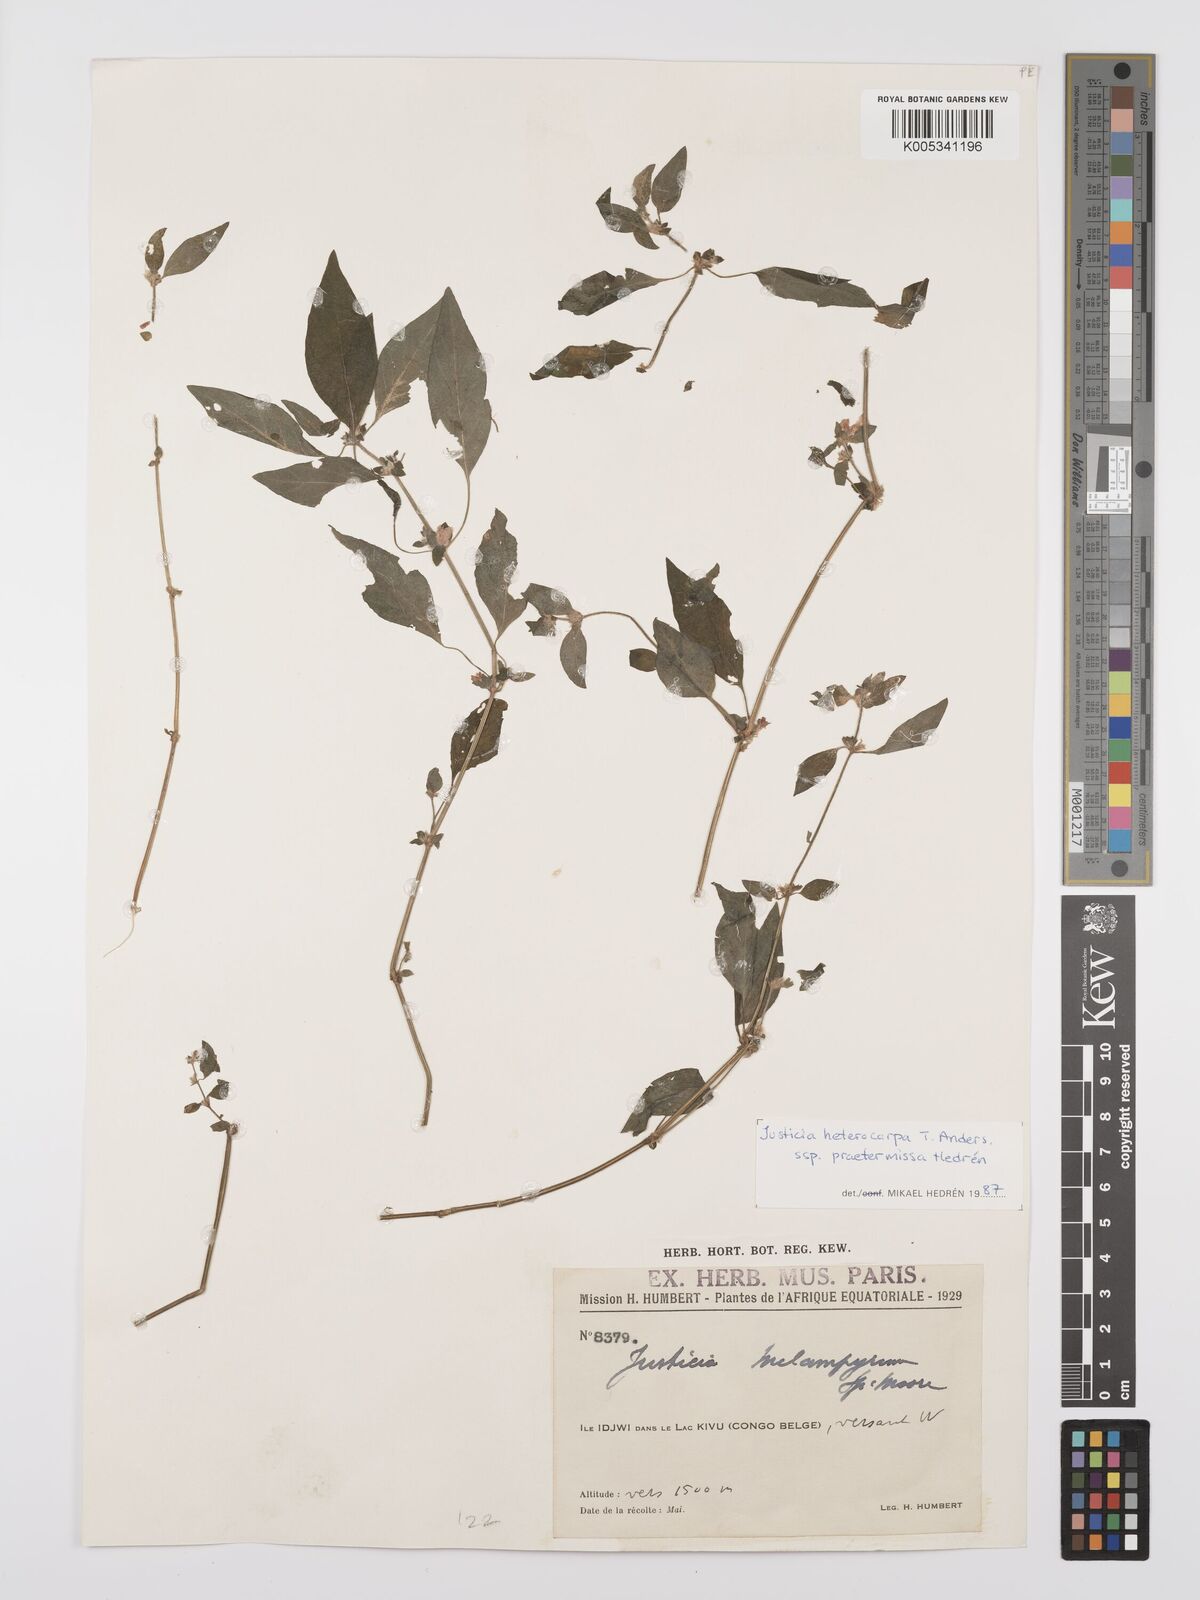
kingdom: Plantae
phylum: Tracheophyta
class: Magnoliopsida
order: Lamiales
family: Acanthaceae
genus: Justicia
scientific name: Justicia heterocarpa
